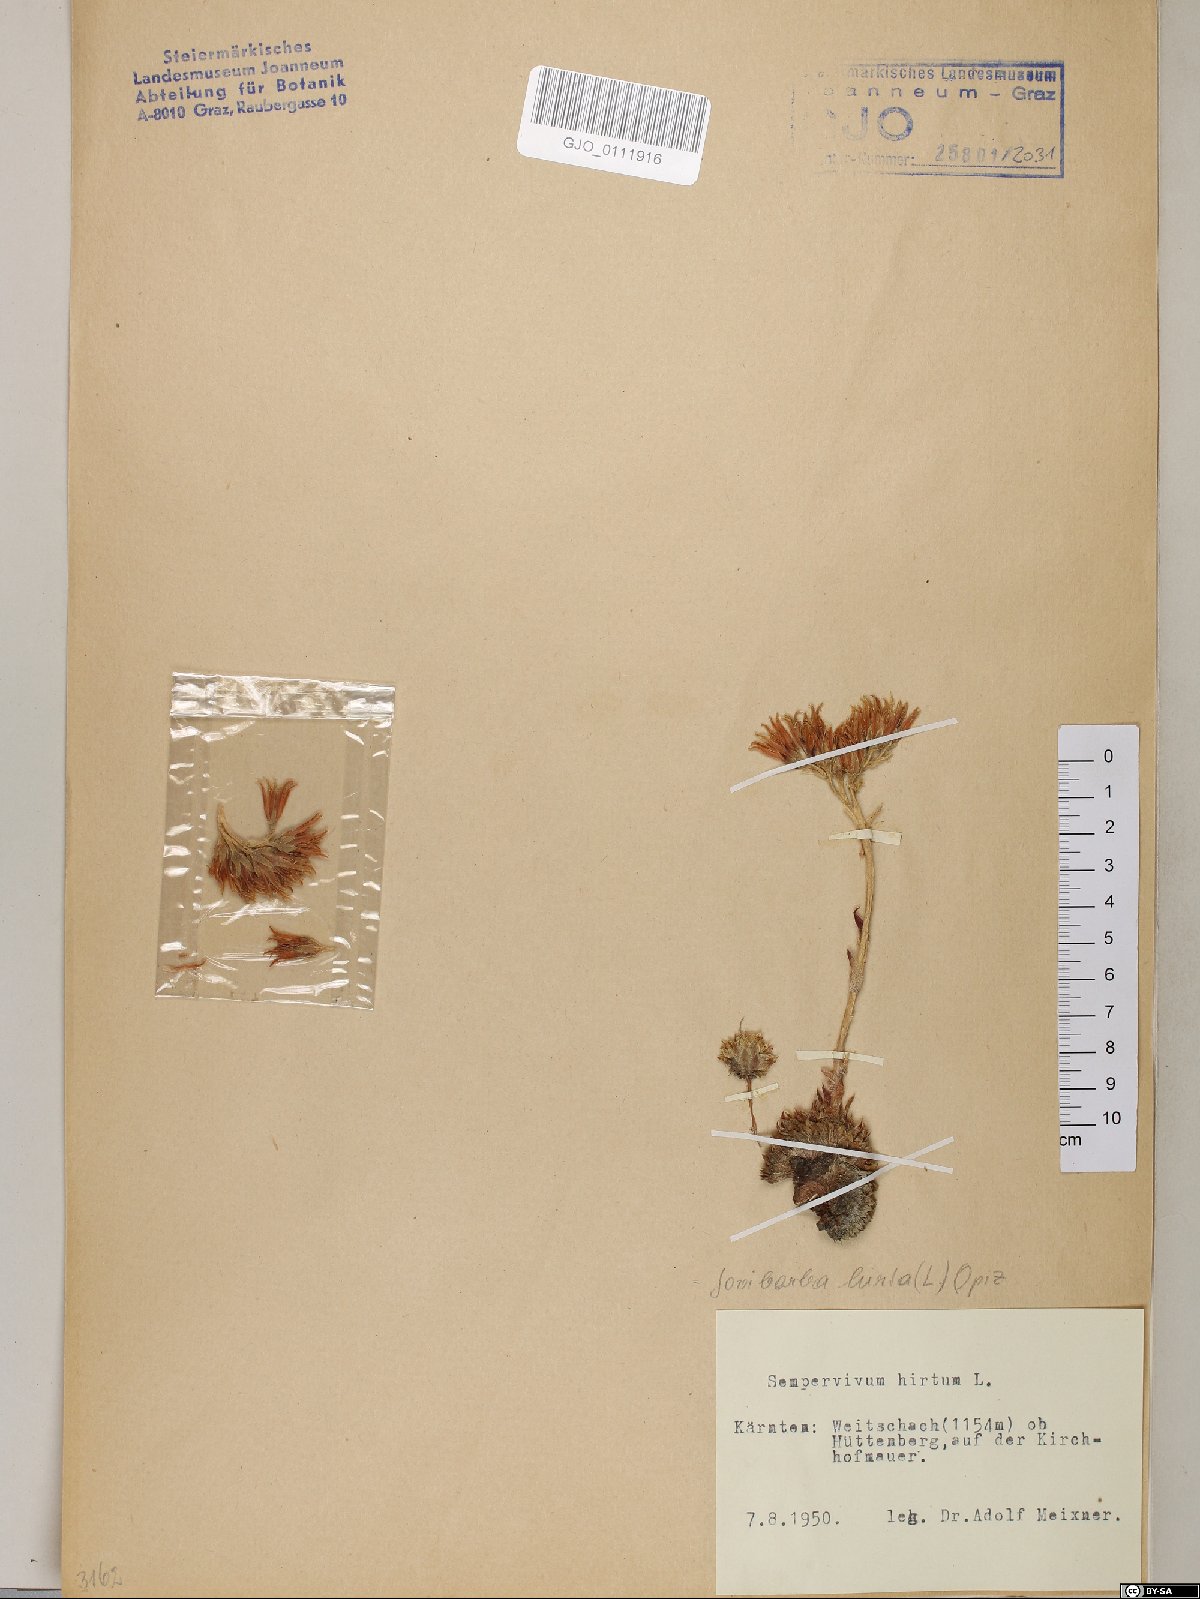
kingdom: Plantae
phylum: Tracheophyta
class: Magnoliopsida
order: Saxifragales
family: Crassulaceae
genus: Sempervivum
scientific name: Sempervivum globiferum
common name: Rolling hen-and-chicks
